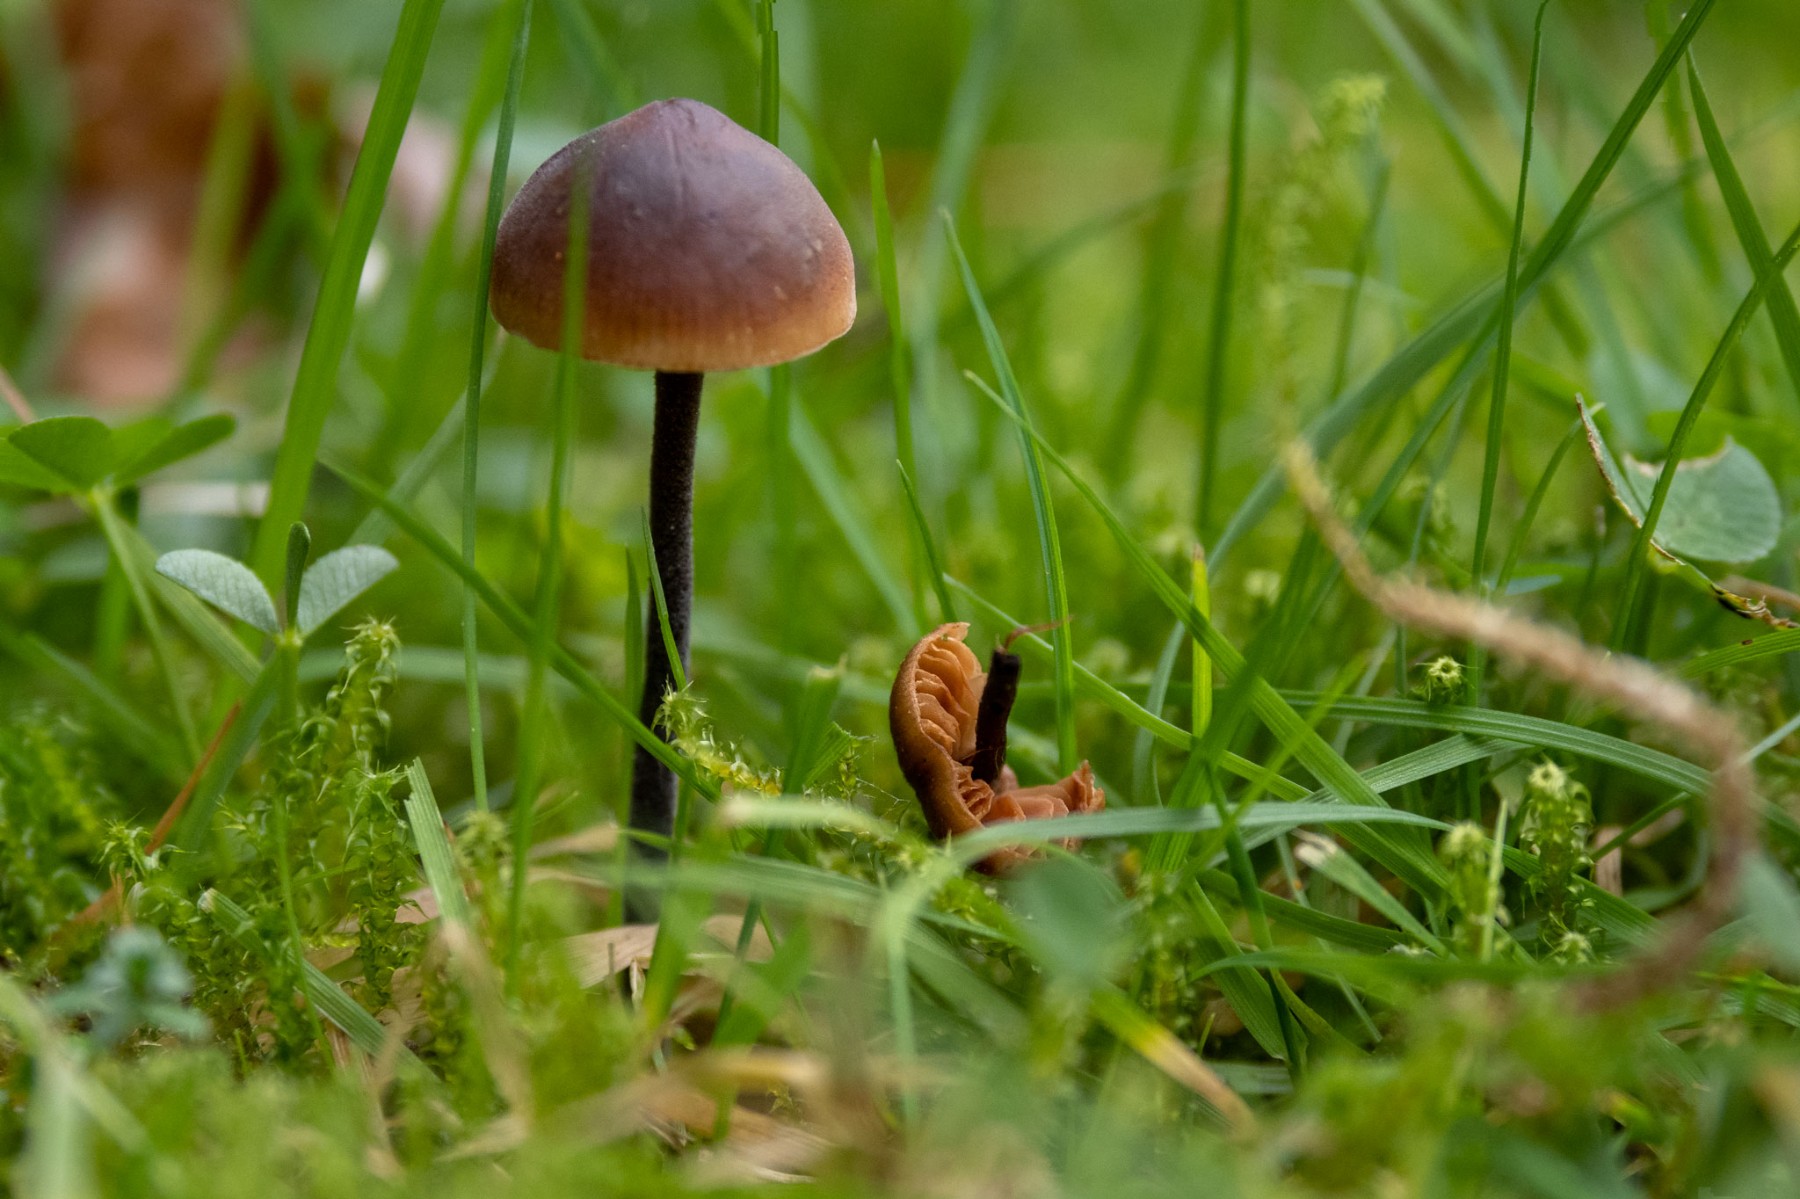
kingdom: Fungi
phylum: Basidiomycota
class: Agaricomycetes
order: Agaricales
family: Macrocystidiaceae
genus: Macrocystidia
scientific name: Macrocystidia cucumis
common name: agurkehat
